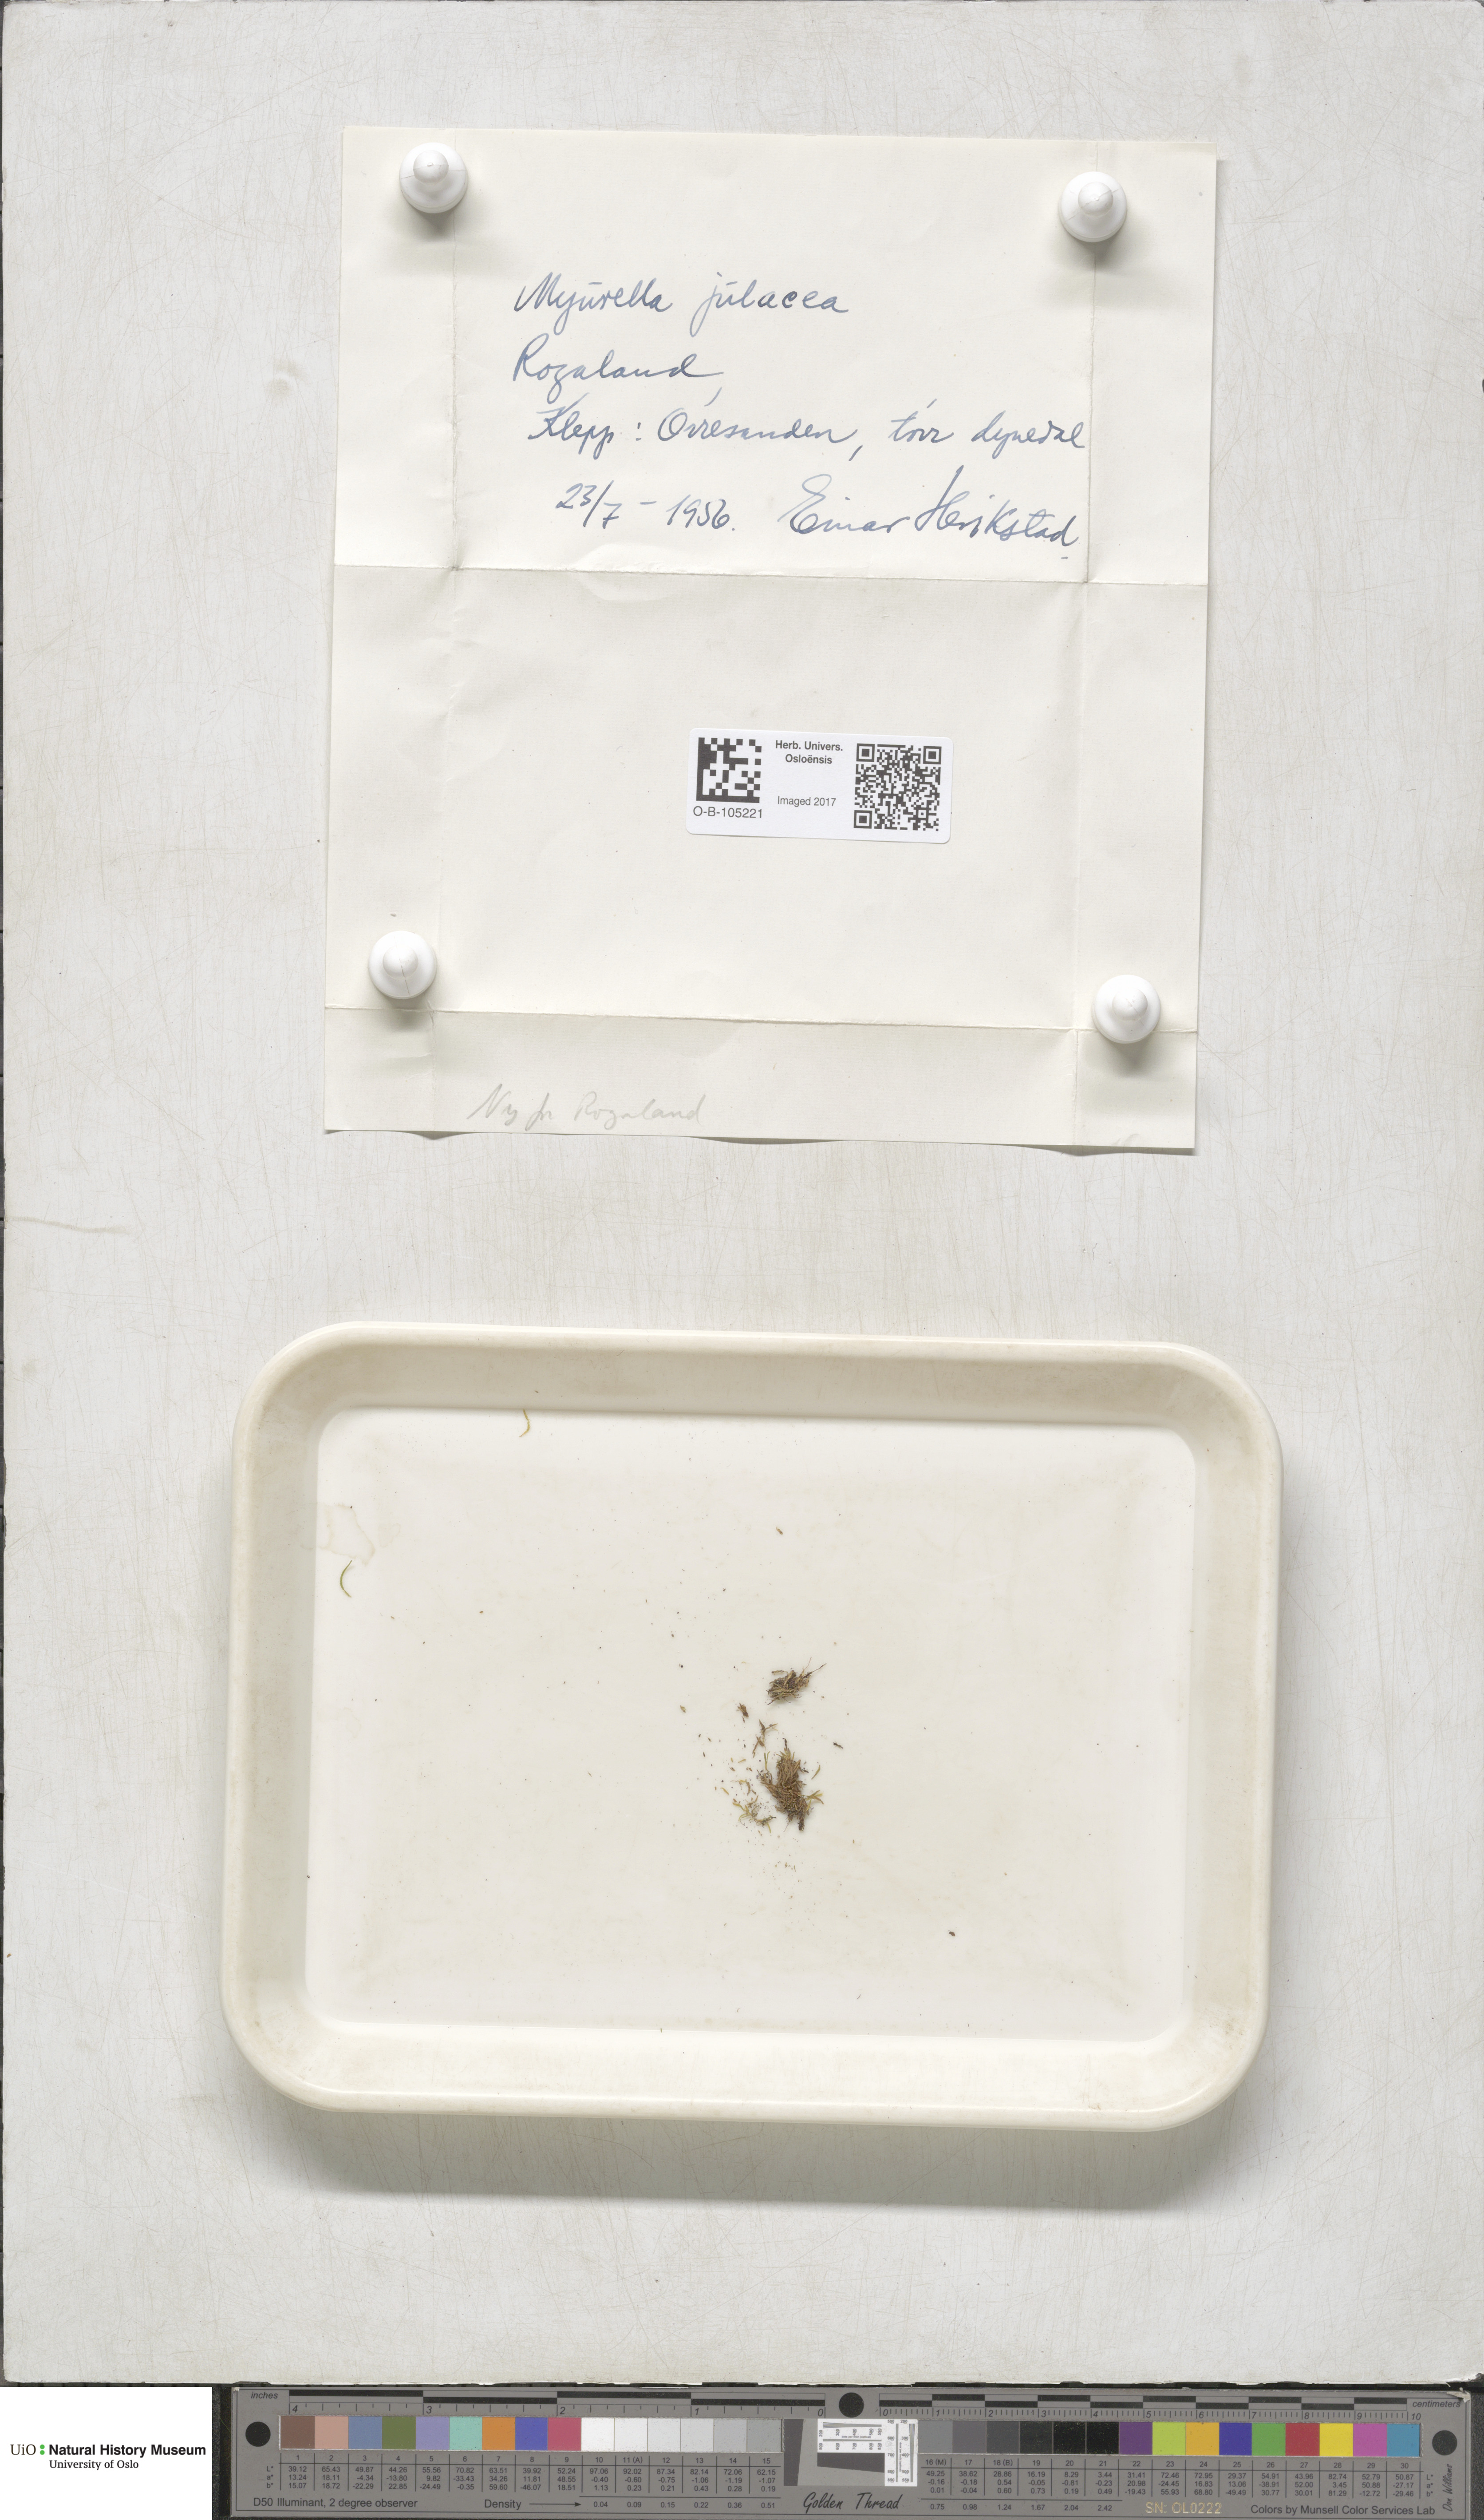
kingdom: Plantae
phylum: Bryophyta
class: Bryopsida
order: Hypnales
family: Plagiotheciaceae
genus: Myurella
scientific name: Myurella julacea
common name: Small mousetail moss
